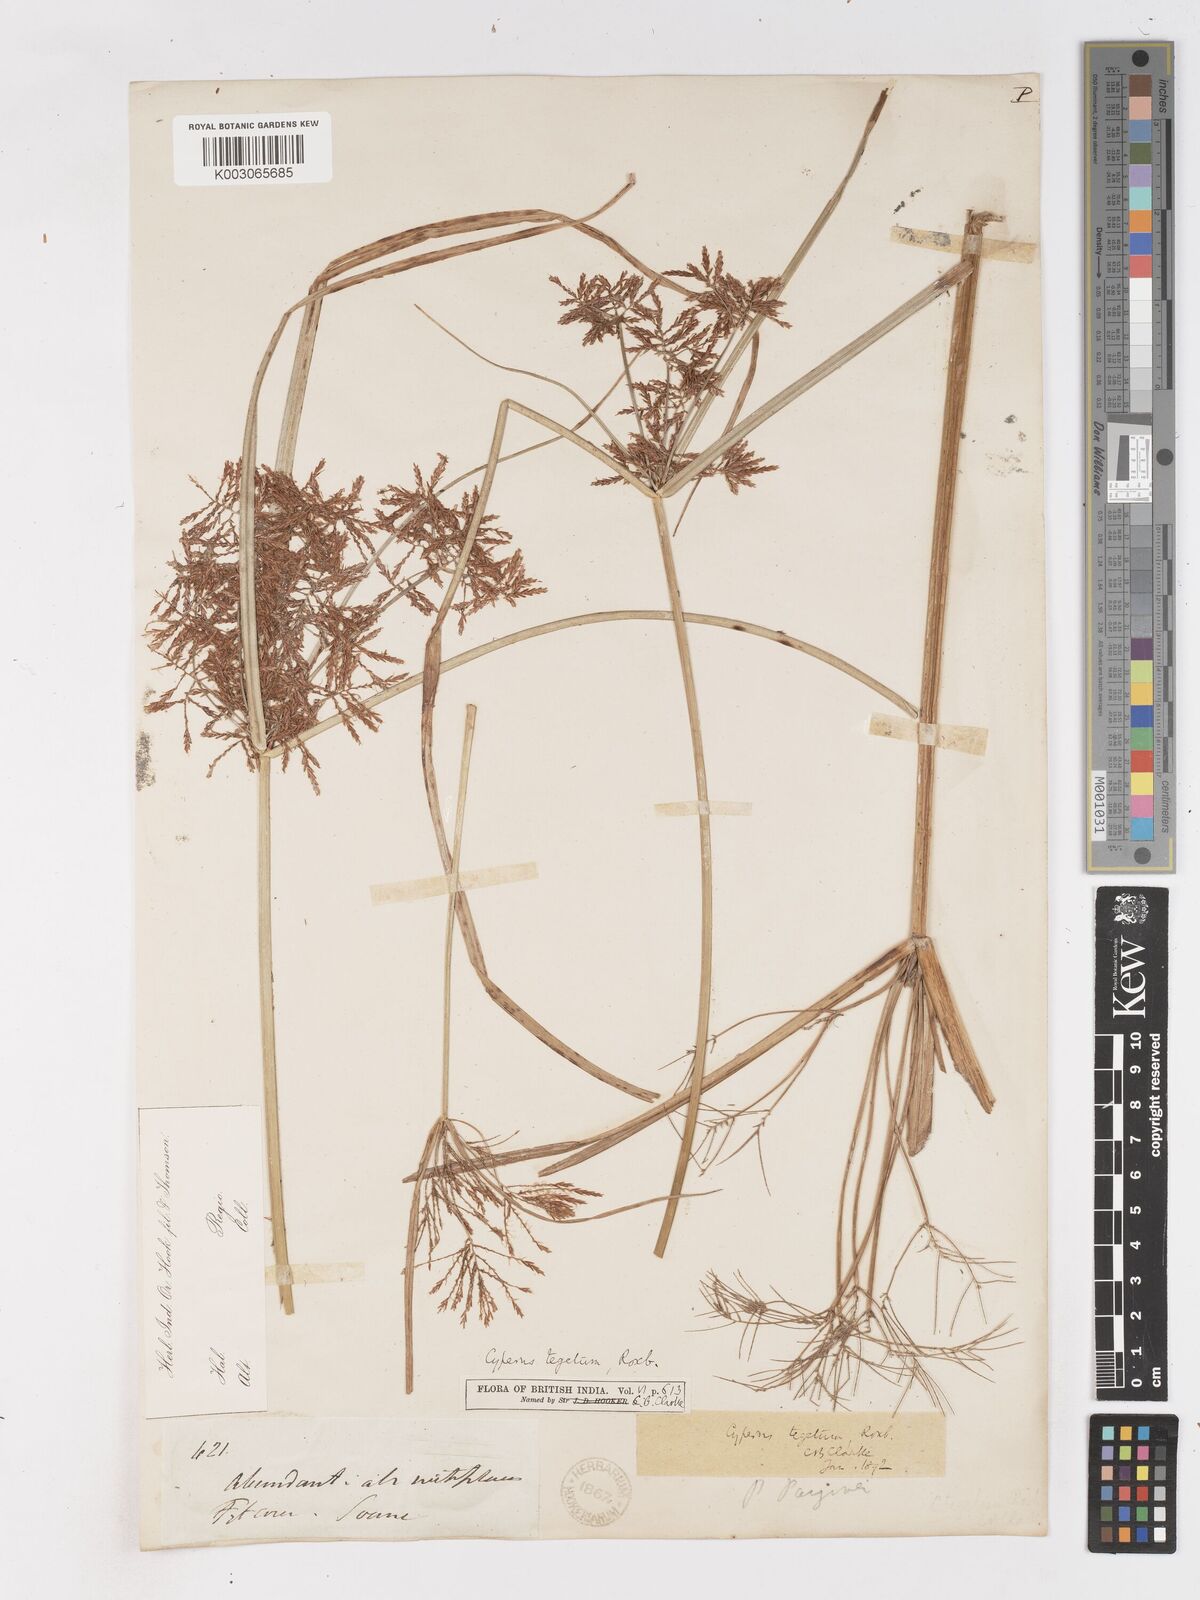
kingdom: Plantae
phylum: Tracheophyta
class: Liliopsida
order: Poales
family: Cyperaceae
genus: Cyperus
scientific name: Cyperus pangorei
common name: Mat sedge
